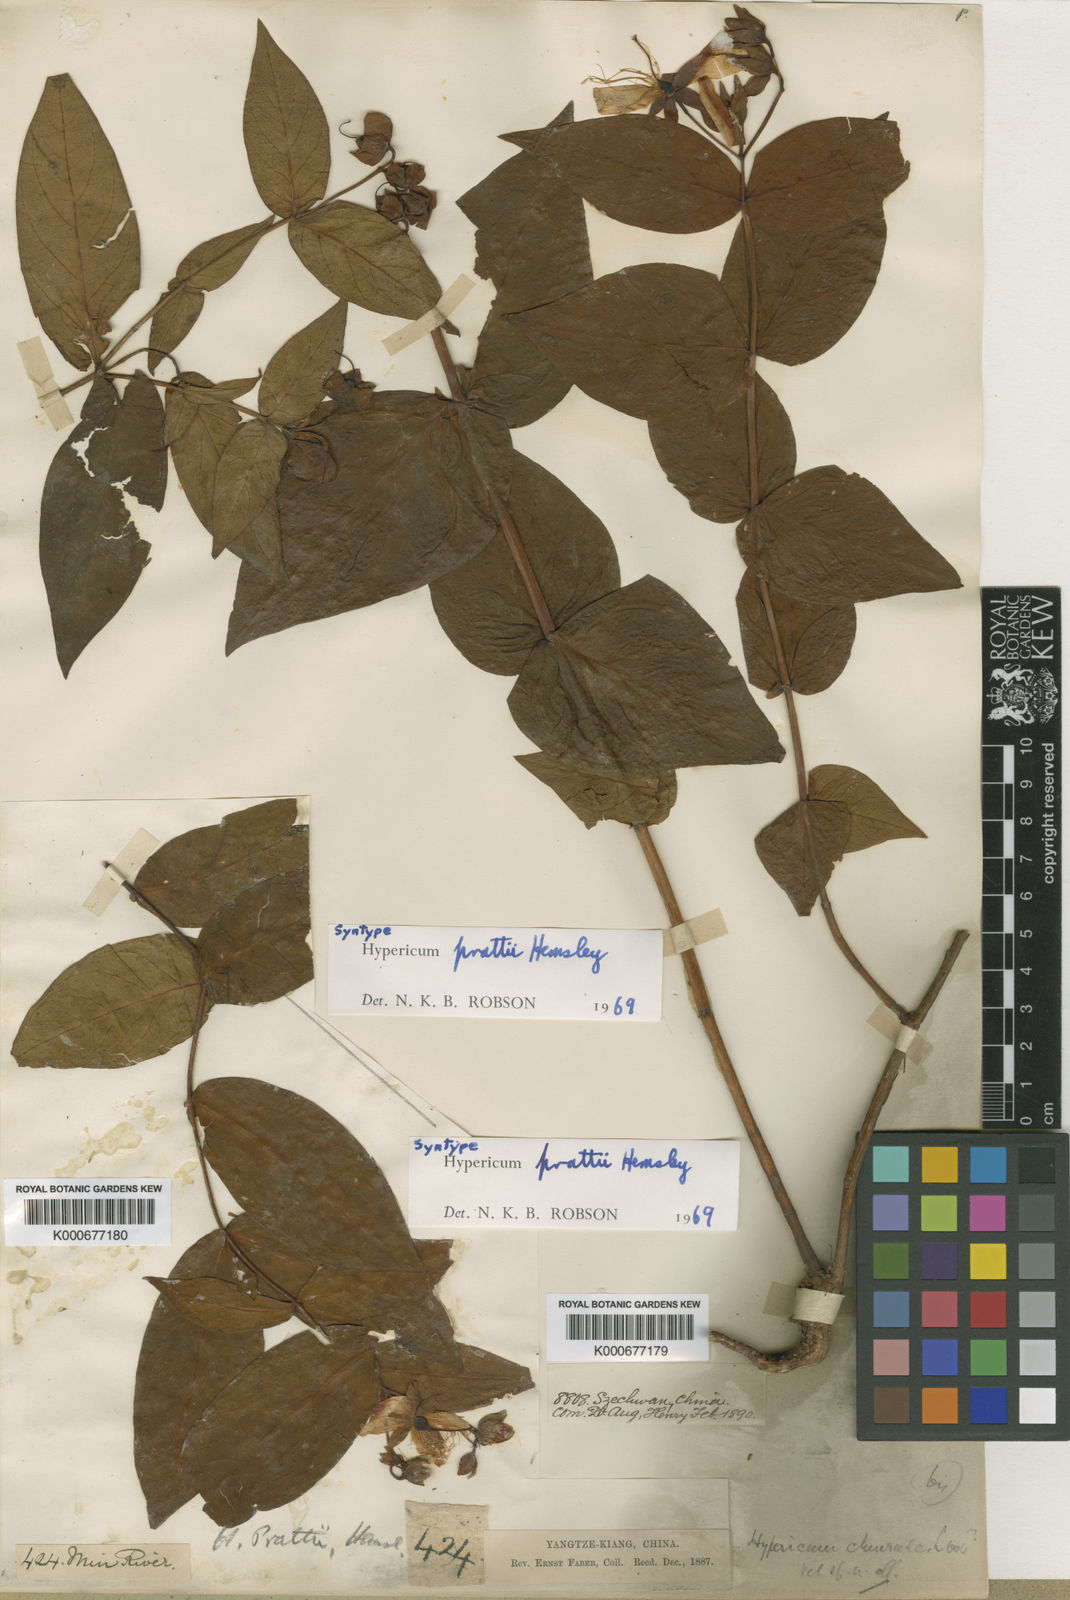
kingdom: Plantae
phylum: Tracheophyta
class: Magnoliopsida
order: Malpighiales
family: Hypericaceae
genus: Hypericum
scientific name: Hypericum prattii
